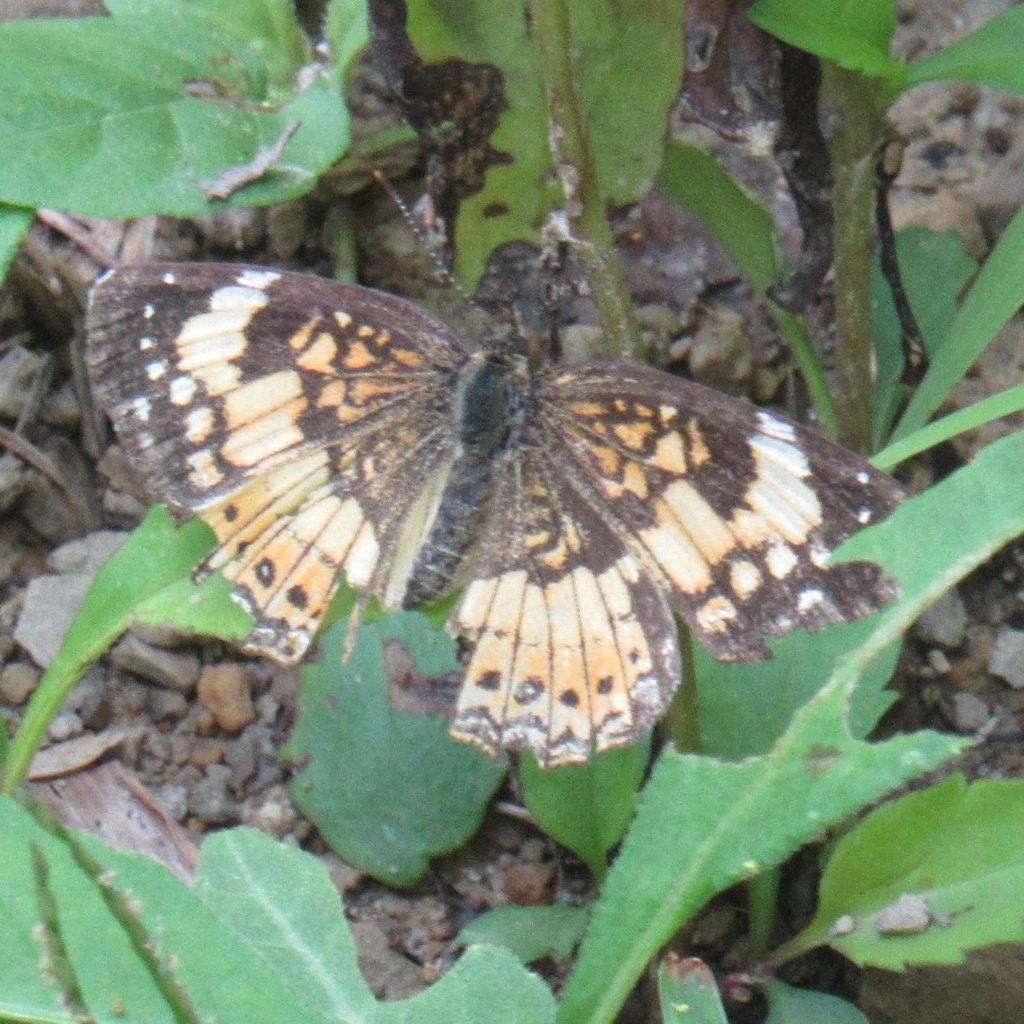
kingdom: Animalia
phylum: Arthropoda
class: Insecta
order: Lepidoptera
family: Nymphalidae
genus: Chlosyne
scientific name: Chlosyne nycteis
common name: Silvery Checkerspot
